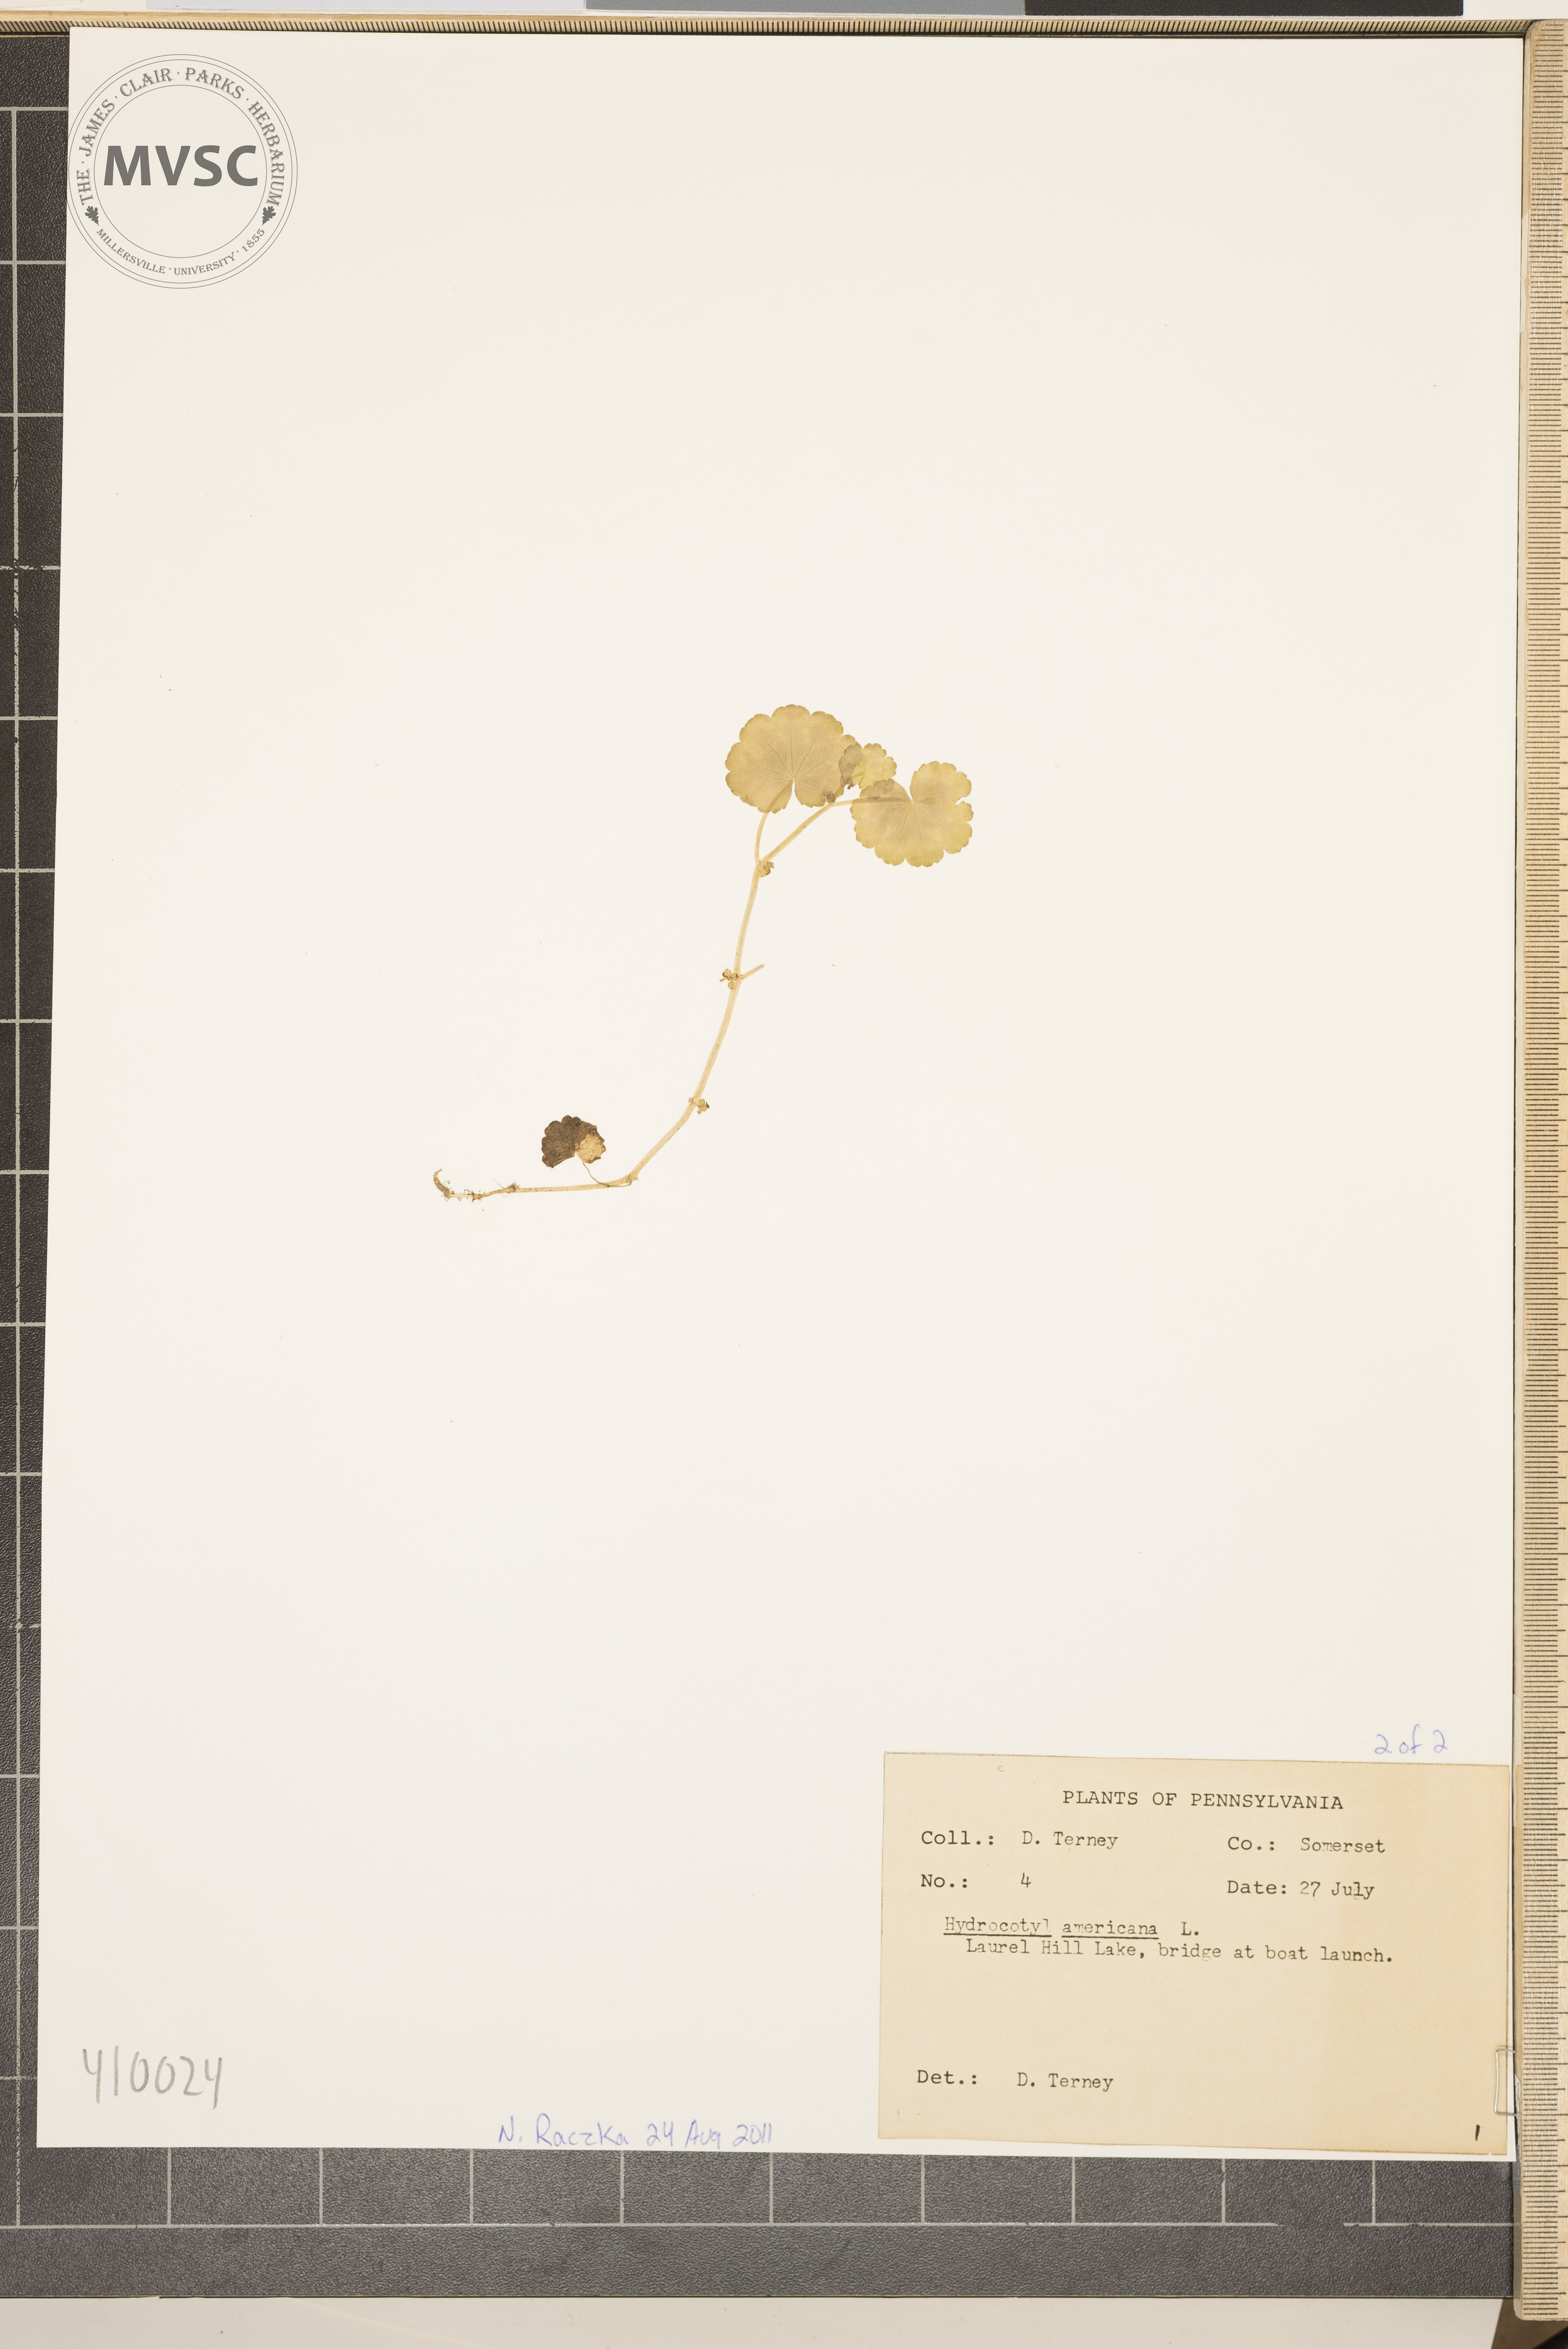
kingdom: Plantae
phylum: Tracheophyta
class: Magnoliopsida
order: Apiales
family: Araliaceae
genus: Hydrocotyle
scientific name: Hydrocotyle americana
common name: American water-pennywort
